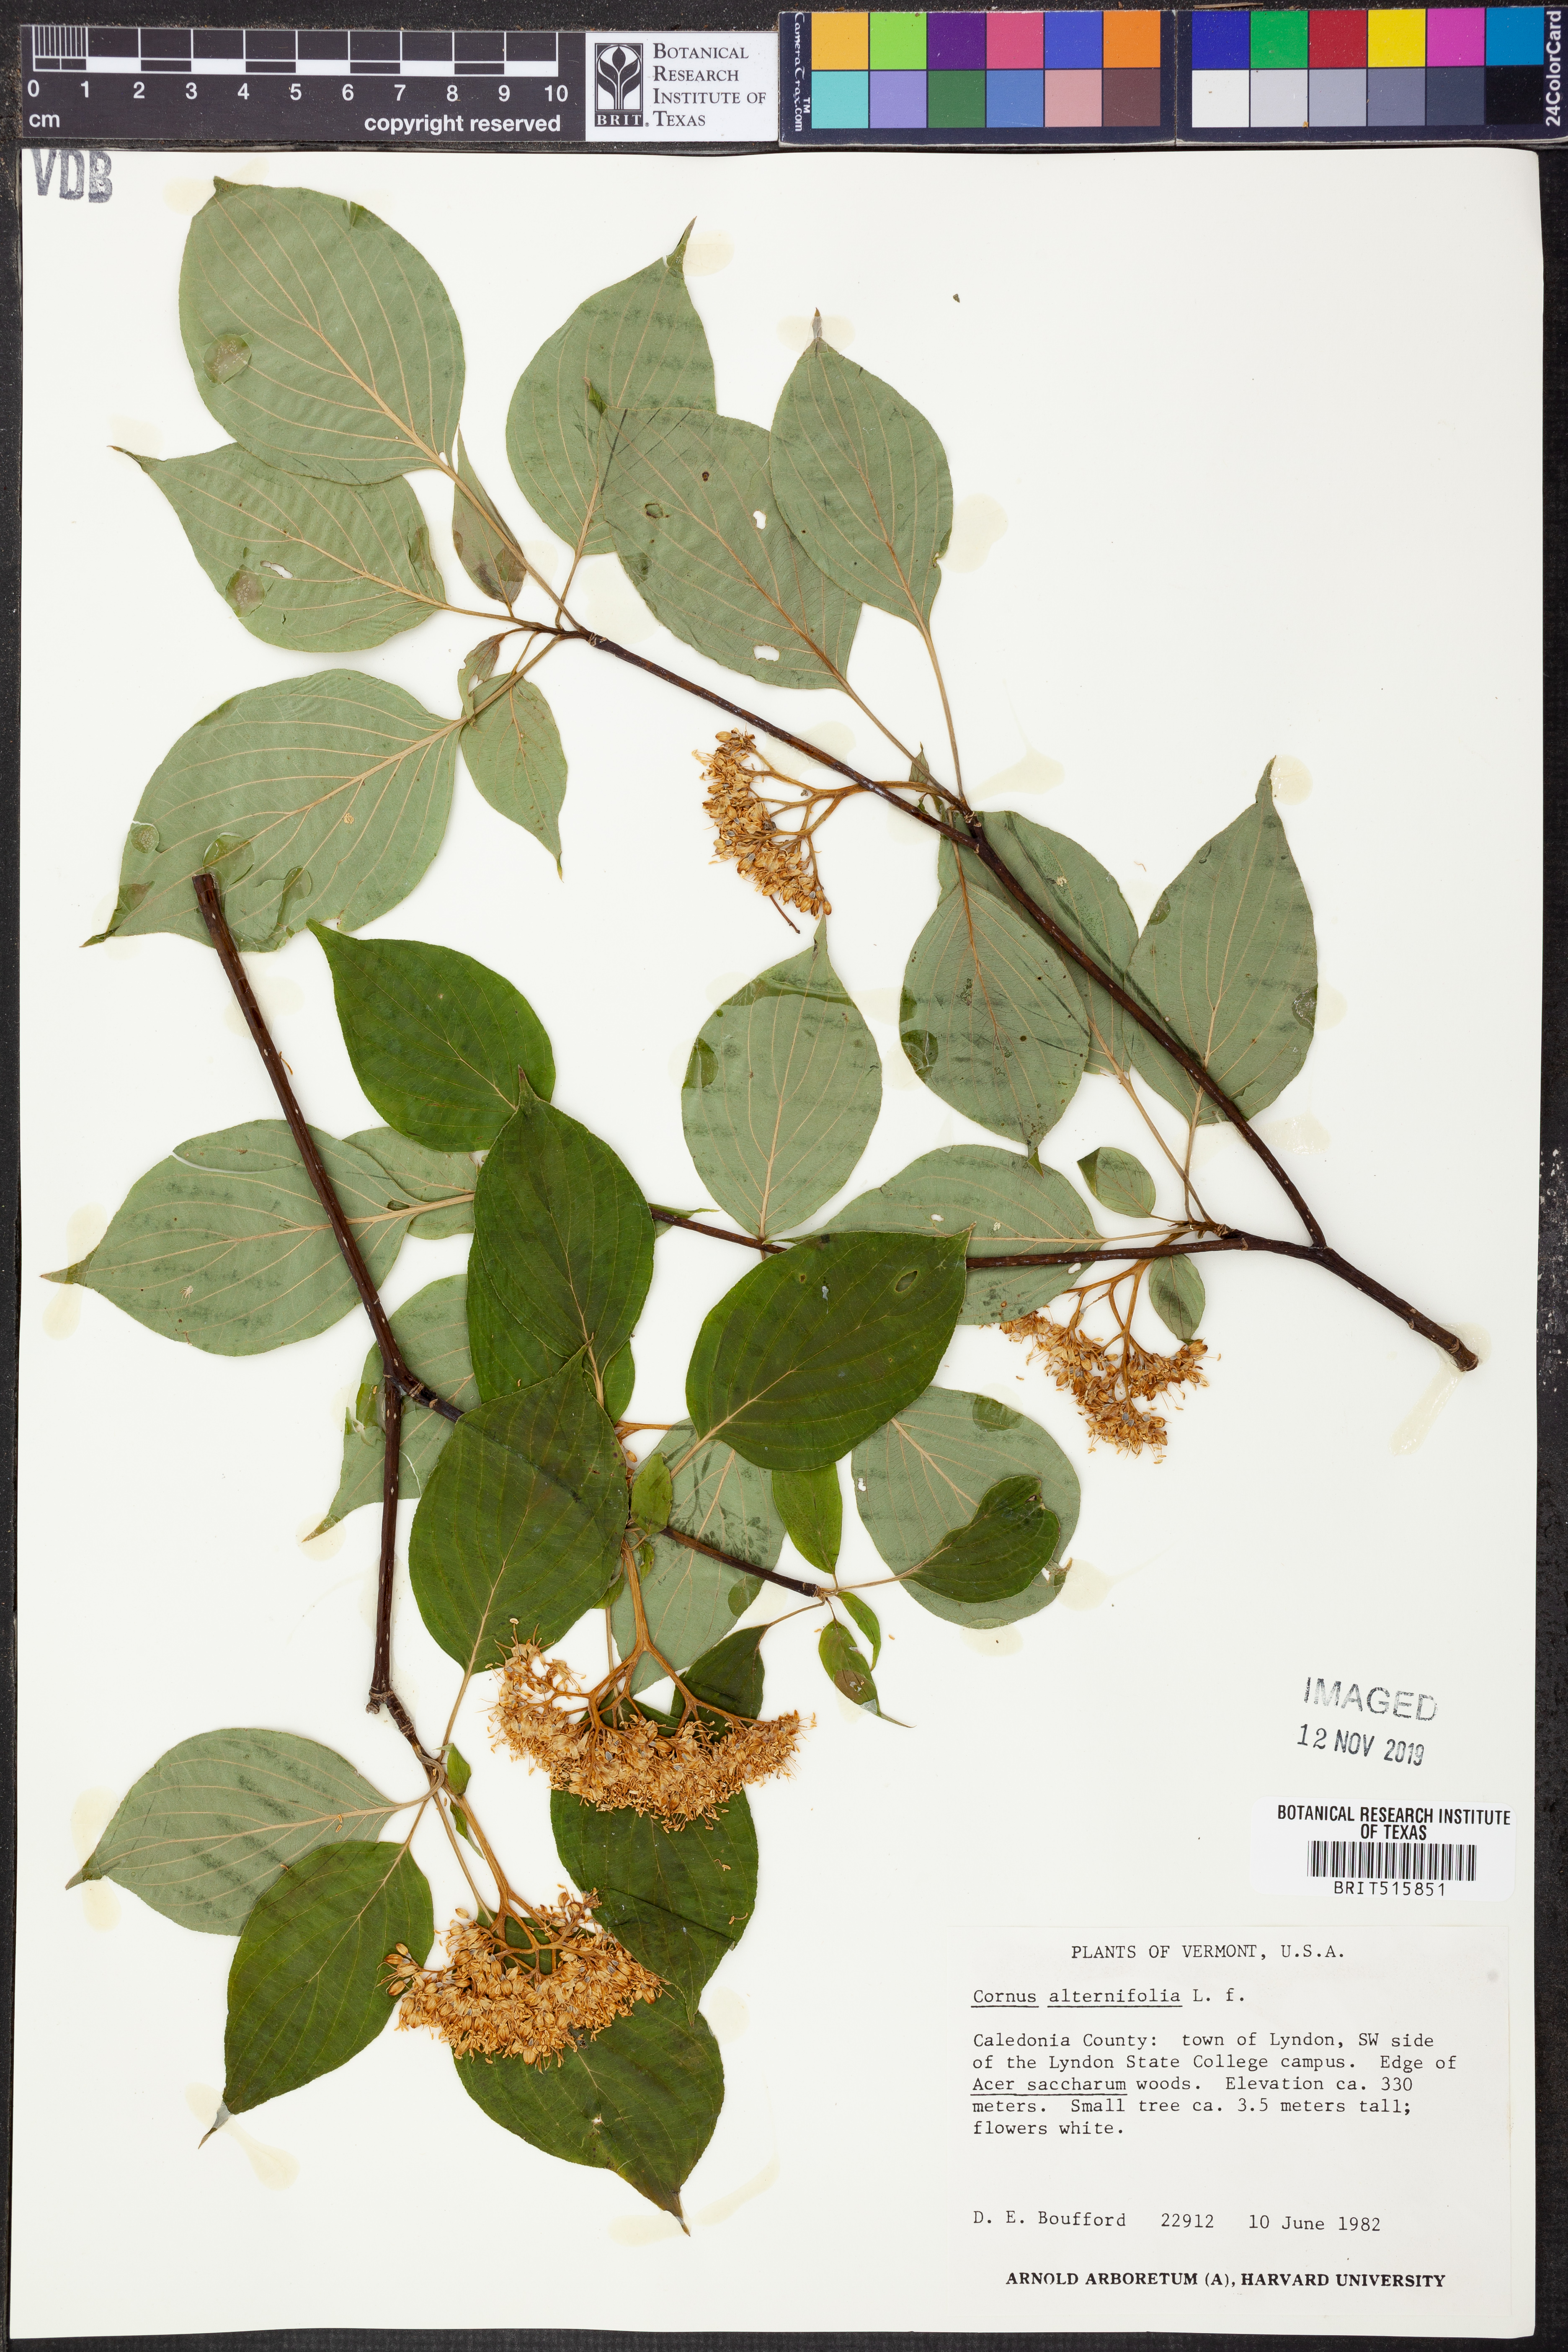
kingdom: Plantae
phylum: Tracheophyta
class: Magnoliopsida
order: Cornales
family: Cornaceae
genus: Cornus
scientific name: Cornus alternifolia
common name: Pagoda dogwood
